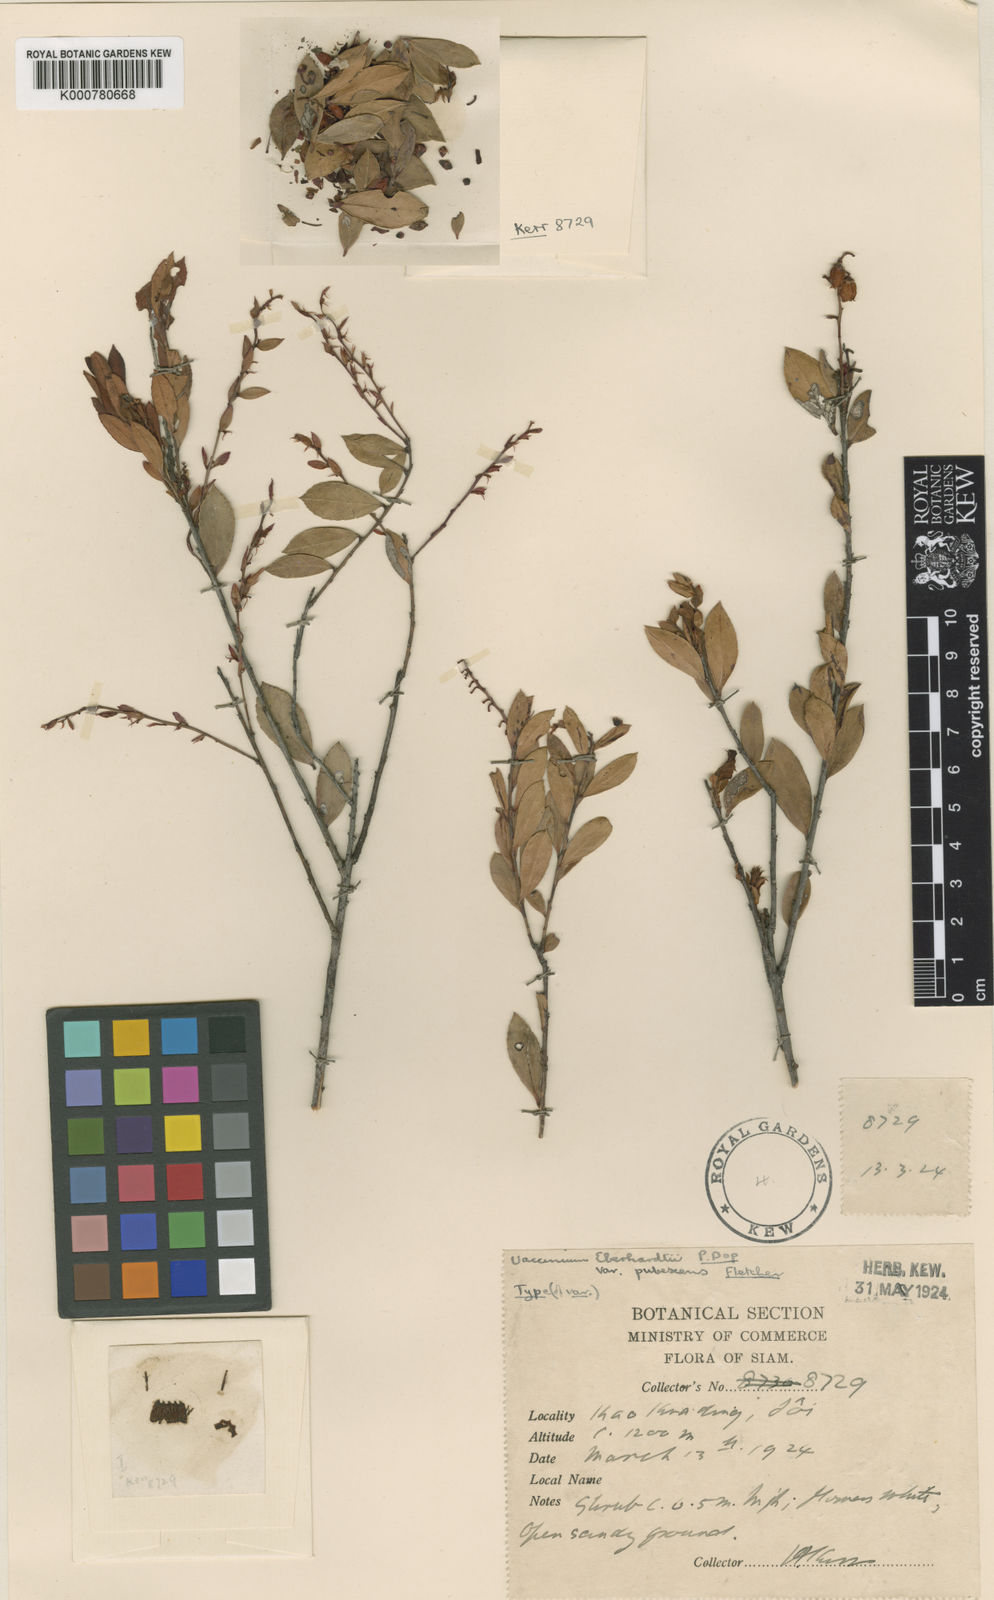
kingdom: Plantae
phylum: Tracheophyta
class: Magnoliopsida
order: Ericales
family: Ericaceae
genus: Vaccinium
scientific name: Vaccinium griffithianum
